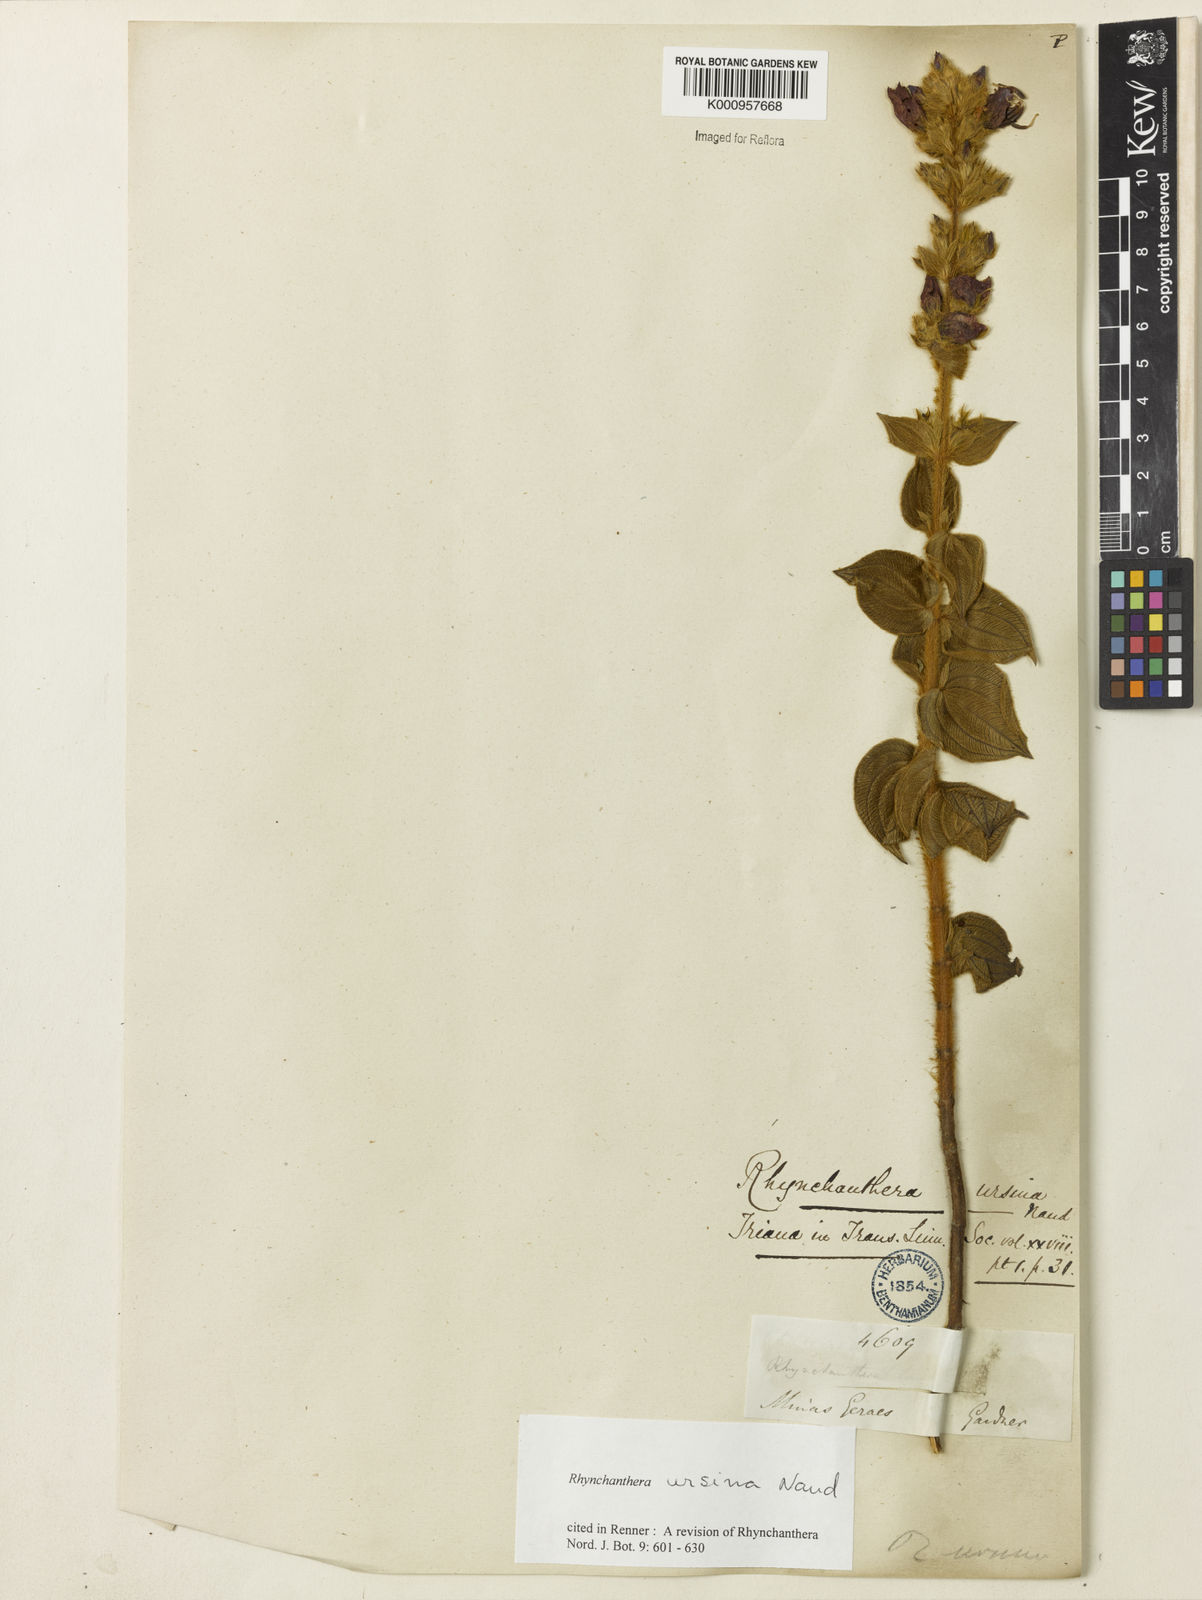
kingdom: Plantae
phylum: Tracheophyta
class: Magnoliopsida
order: Myrtales
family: Melastomataceae
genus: Rhynchanthera
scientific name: Rhynchanthera ursina
